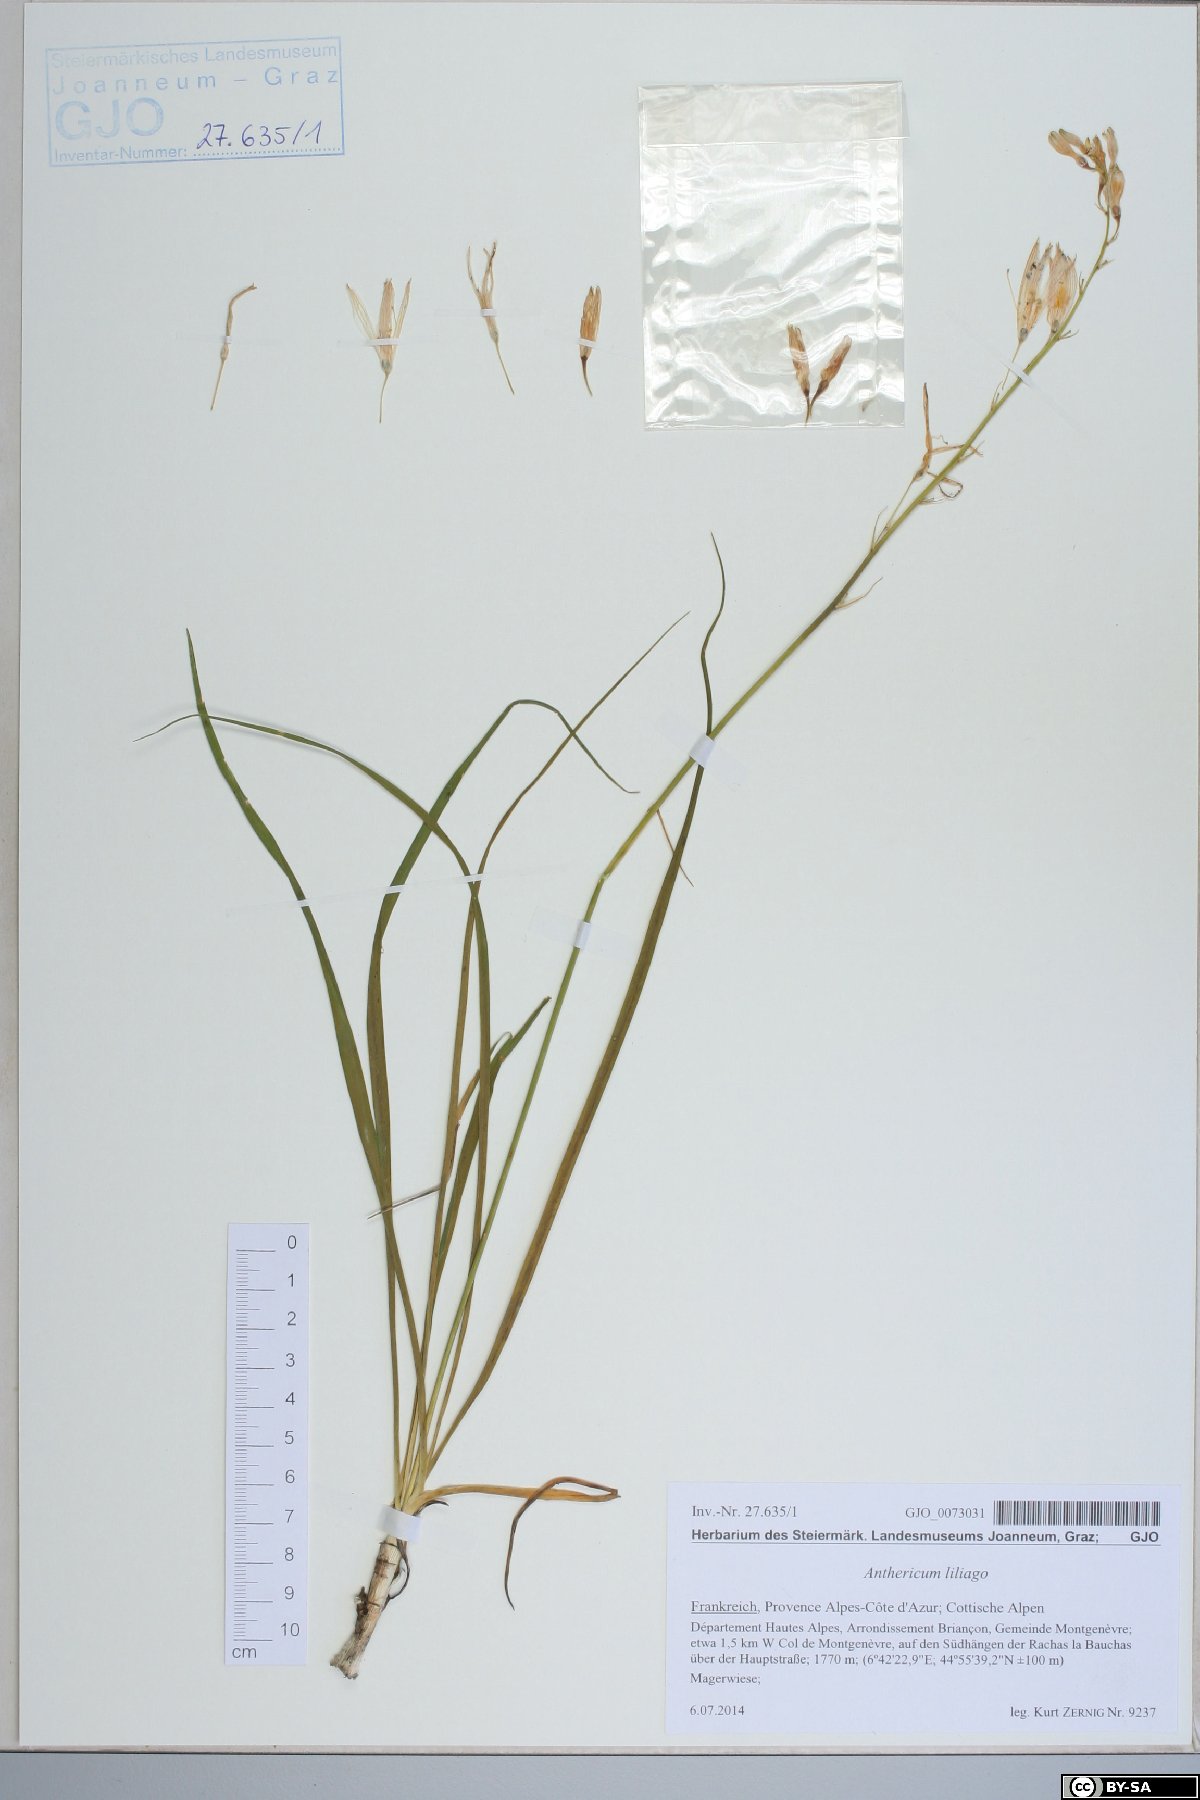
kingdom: Plantae
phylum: Tracheophyta
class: Liliopsida
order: Asparagales
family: Asparagaceae
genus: Anthericum
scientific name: Anthericum liliago
